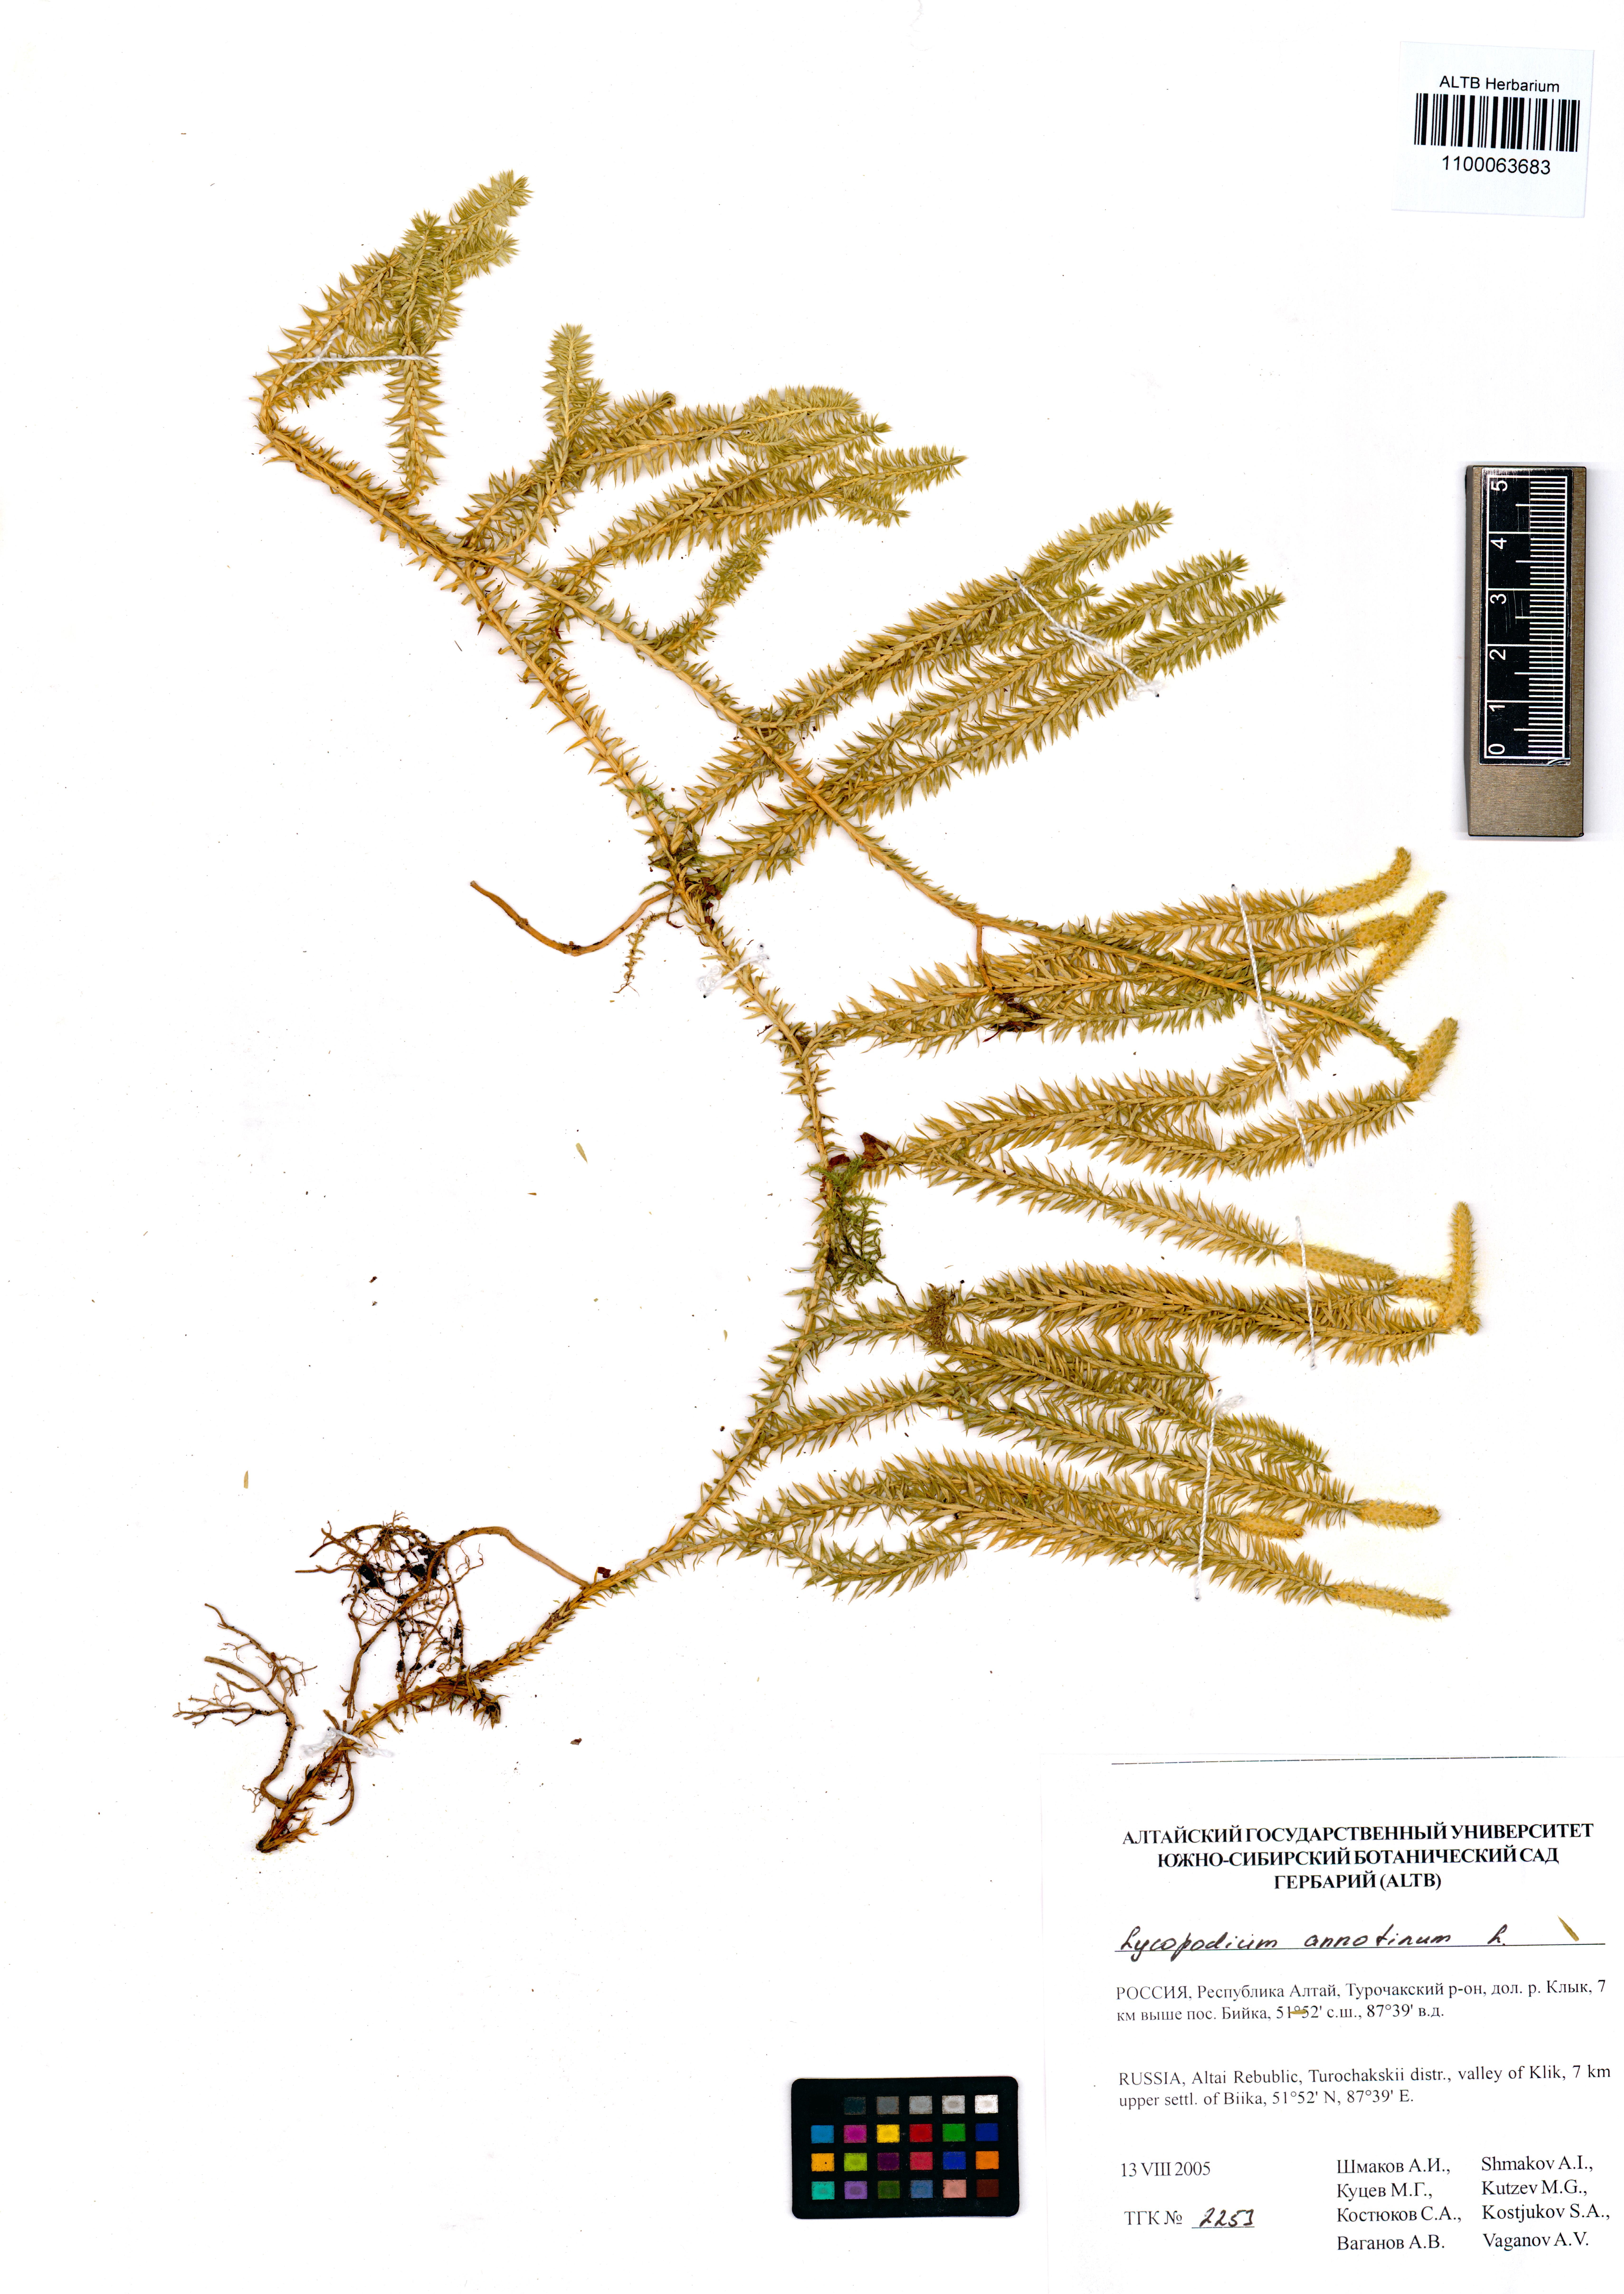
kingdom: Plantae
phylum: Tracheophyta
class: Lycopodiopsida
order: Lycopodiales
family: Lycopodiaceae
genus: Spinulum
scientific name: Spinulum annotinum
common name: Interrupted club-moss
